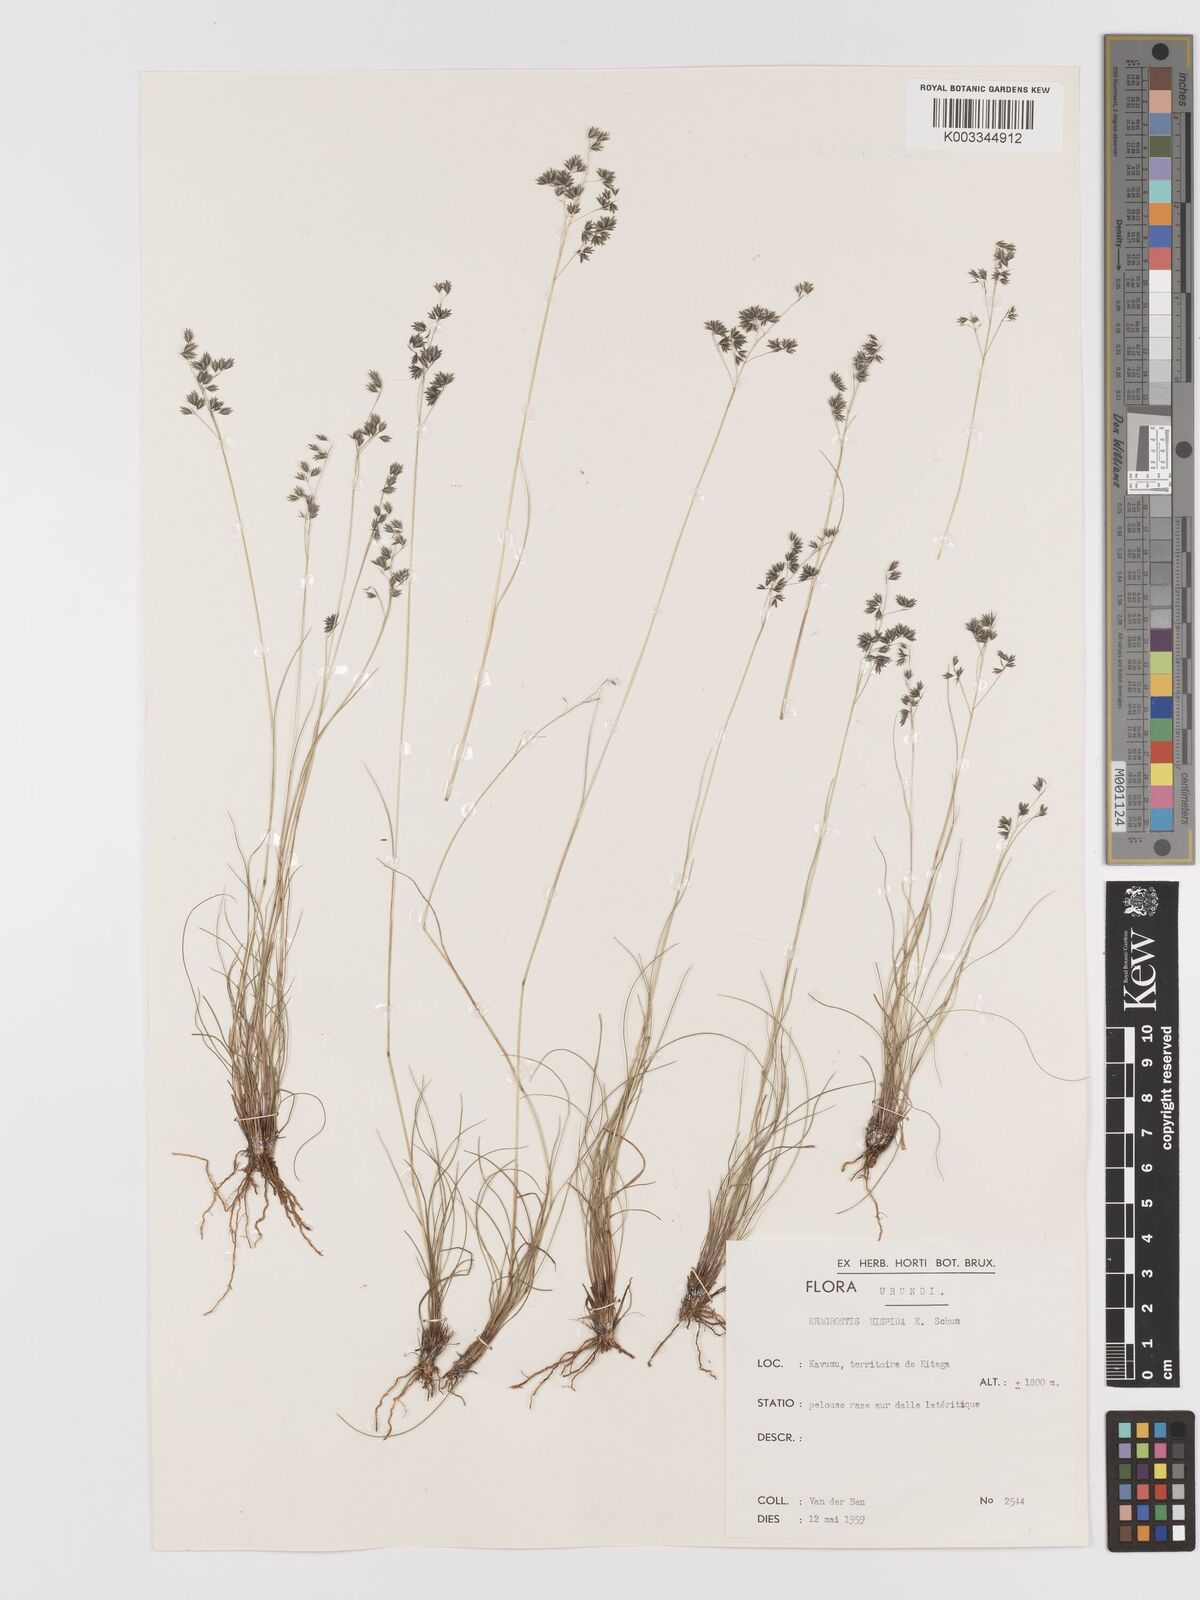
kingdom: Plantae
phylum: Tracheophyta
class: Liliopsida
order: Poales
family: Poaceae
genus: Eragrostis
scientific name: Eragrostis hispida
